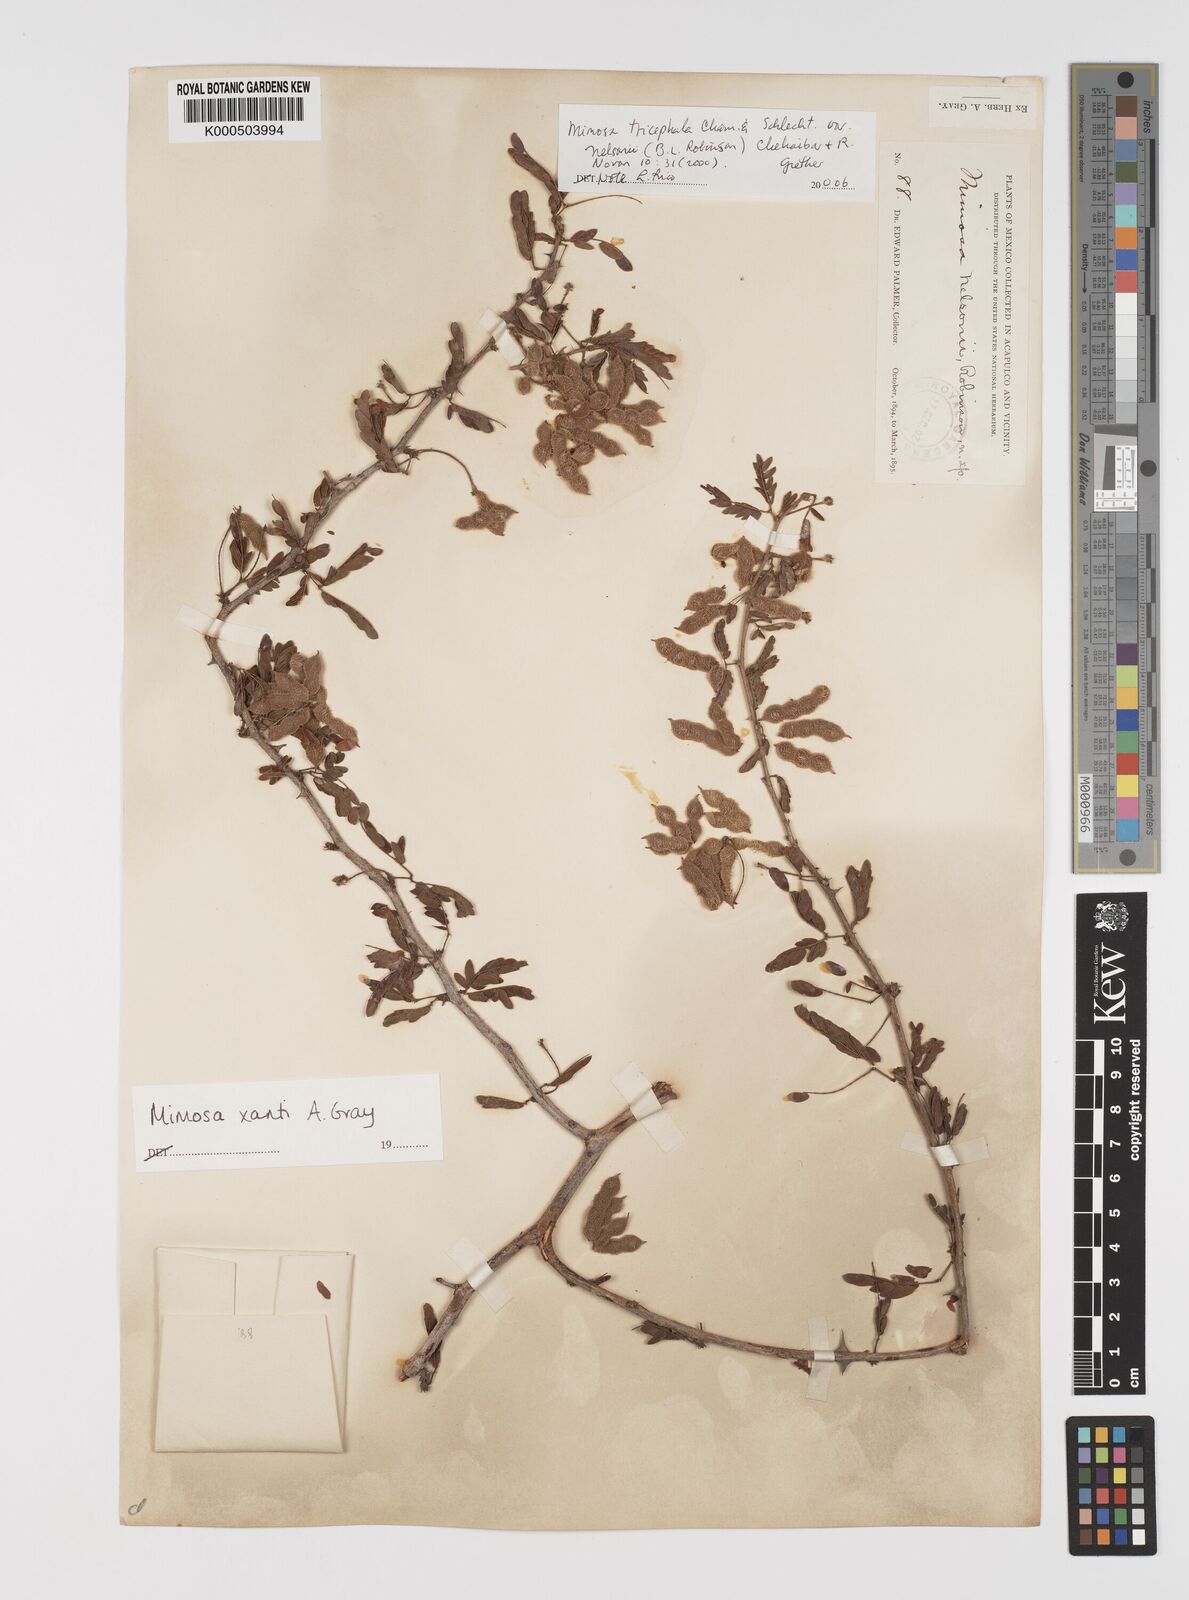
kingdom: Plantae
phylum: Tracheophyta
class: Magnoliopsida
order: Fabales
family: Fabaceae
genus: Mimosa
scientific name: Mimosa tricephala
